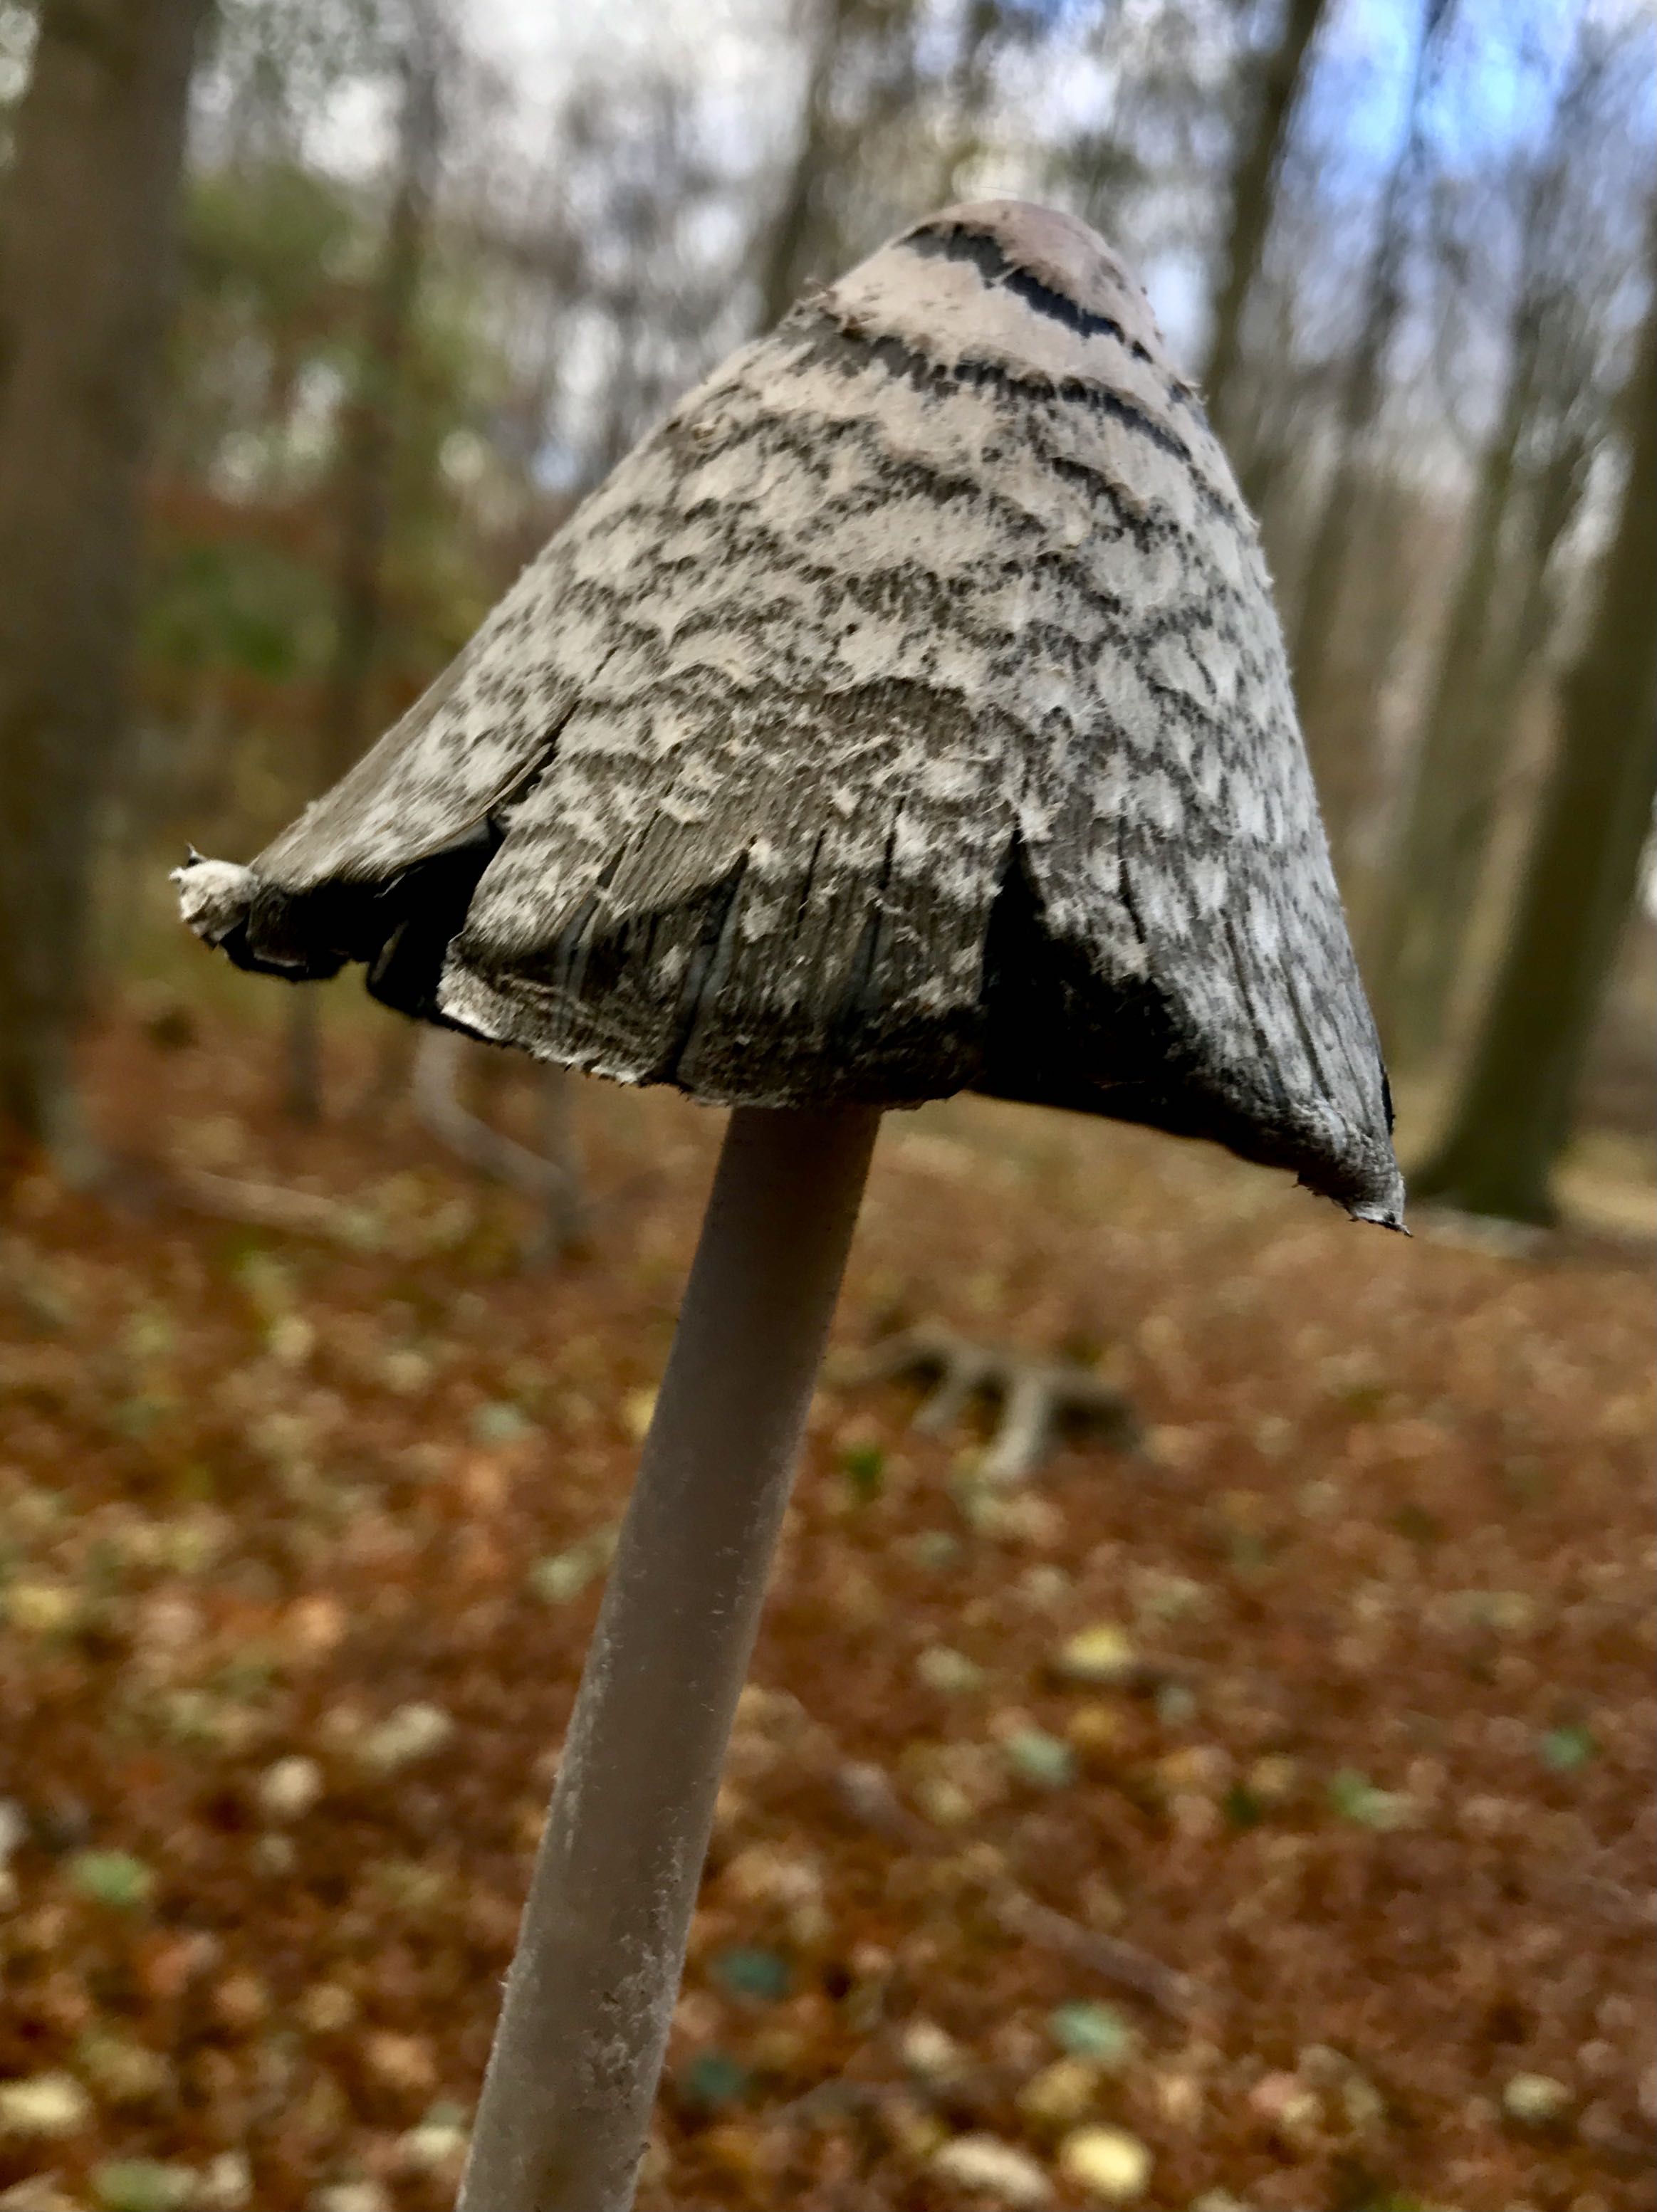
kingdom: Fungi
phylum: Basidiomycota
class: Agaricomycetes
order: Agaricales
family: Psathyrellaceae
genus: Coprinopsis
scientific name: Coprinopsis picacea
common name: skade-blækhat
